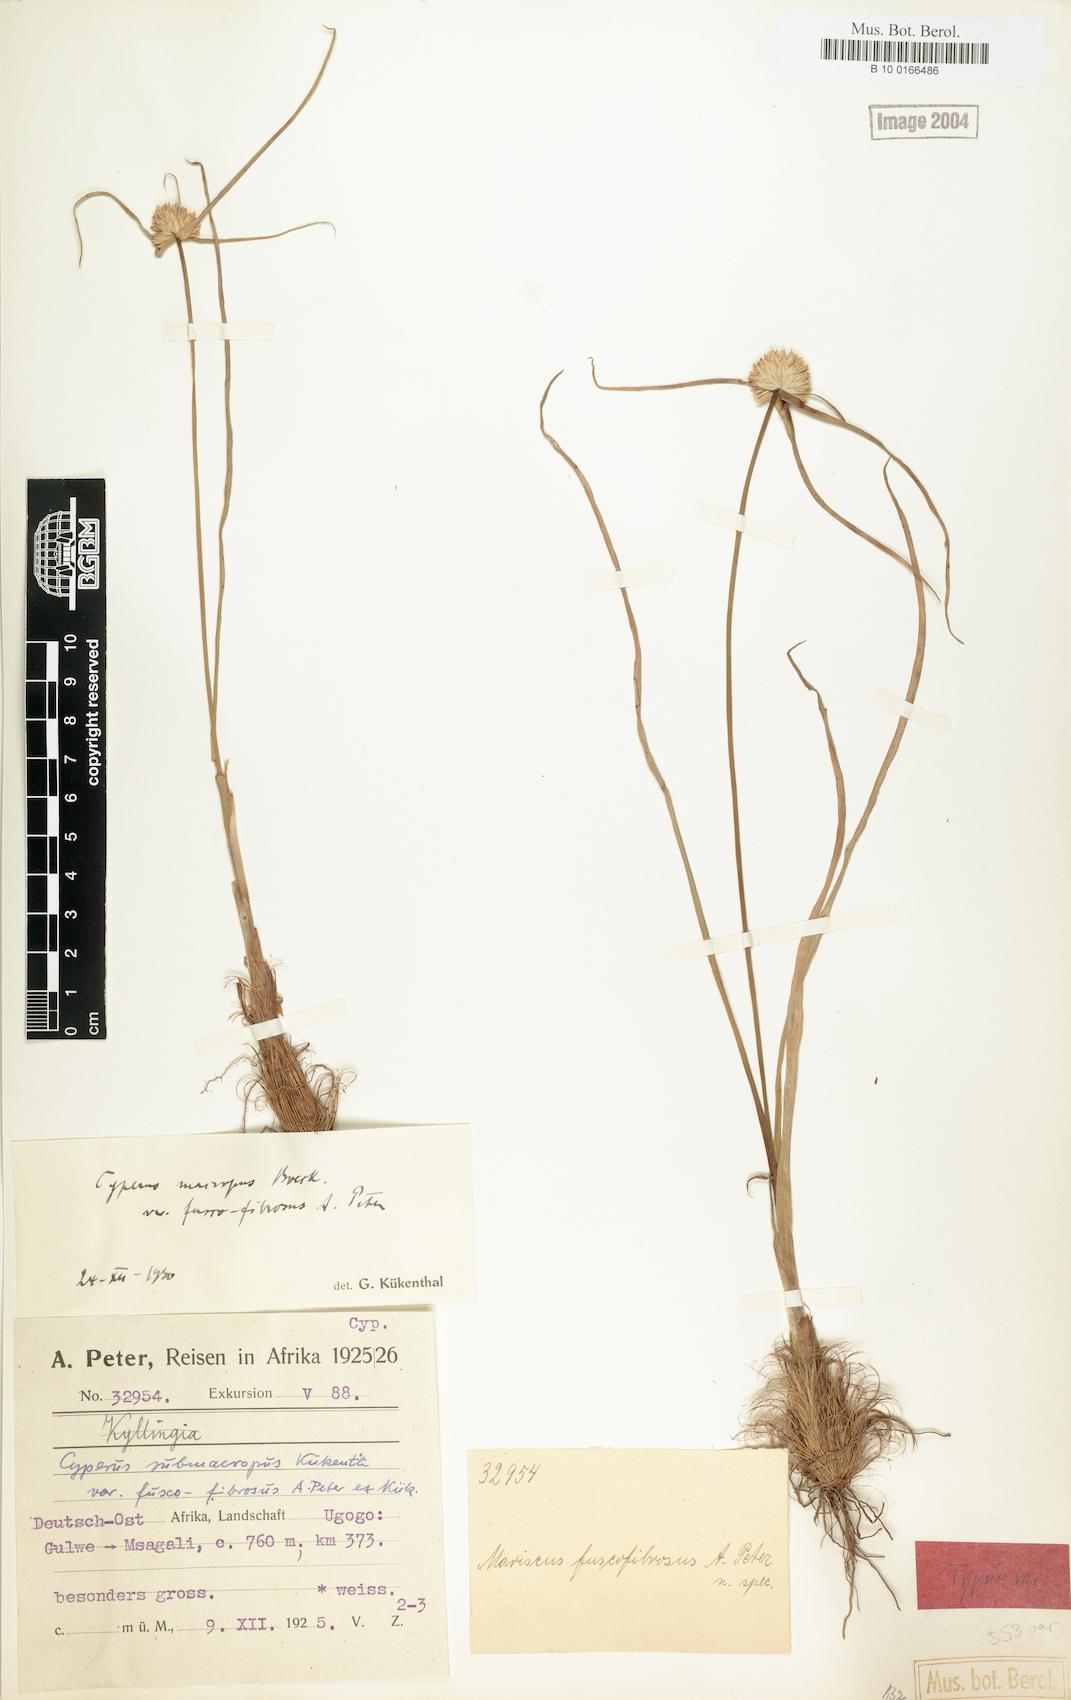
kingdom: Plantae
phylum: Tracheophyta
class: Liliopsida
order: Poales
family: Cyperaceae
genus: Cyperus
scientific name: Cyperus mollipes
